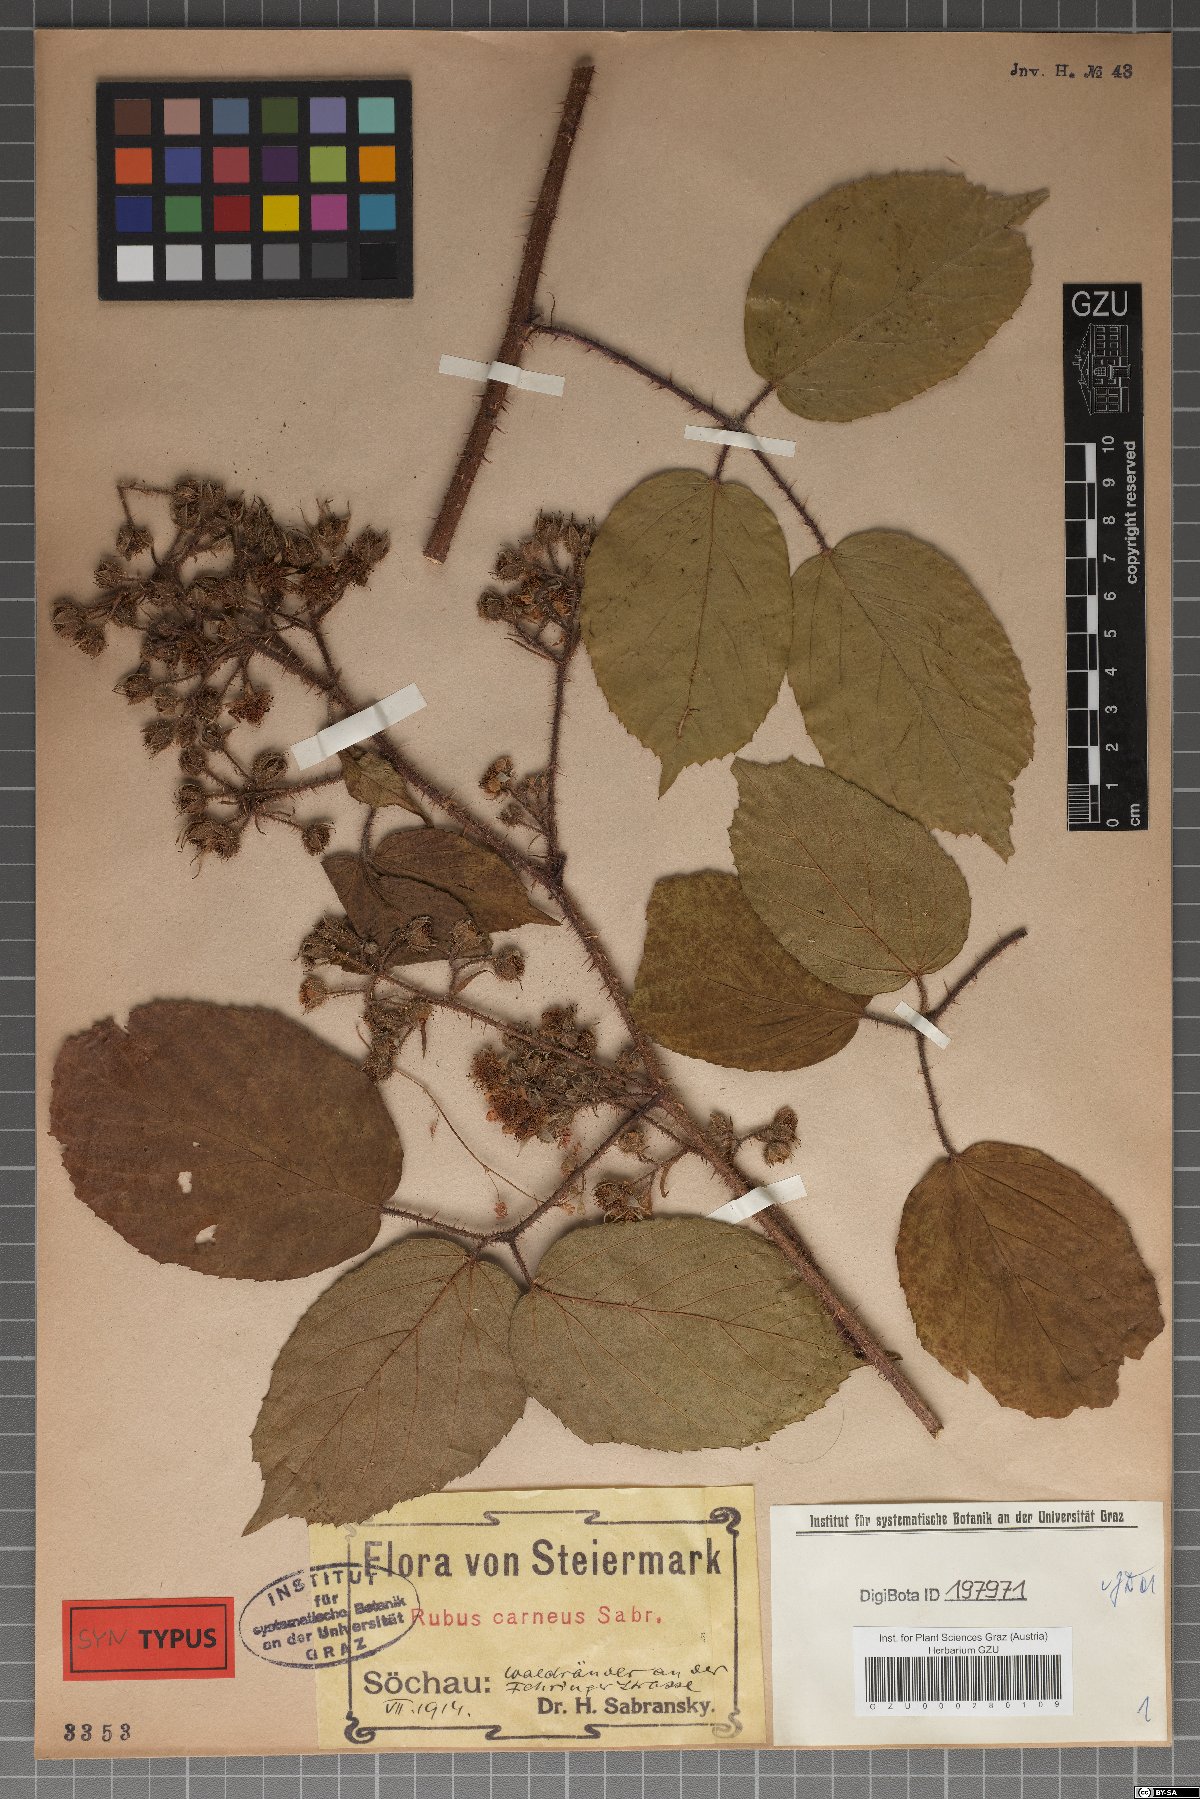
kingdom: Plantae
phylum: Tracheophyta
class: Magnoliopsida
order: Rosales
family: Rosaceae
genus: Rubus
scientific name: Rubus carneus
